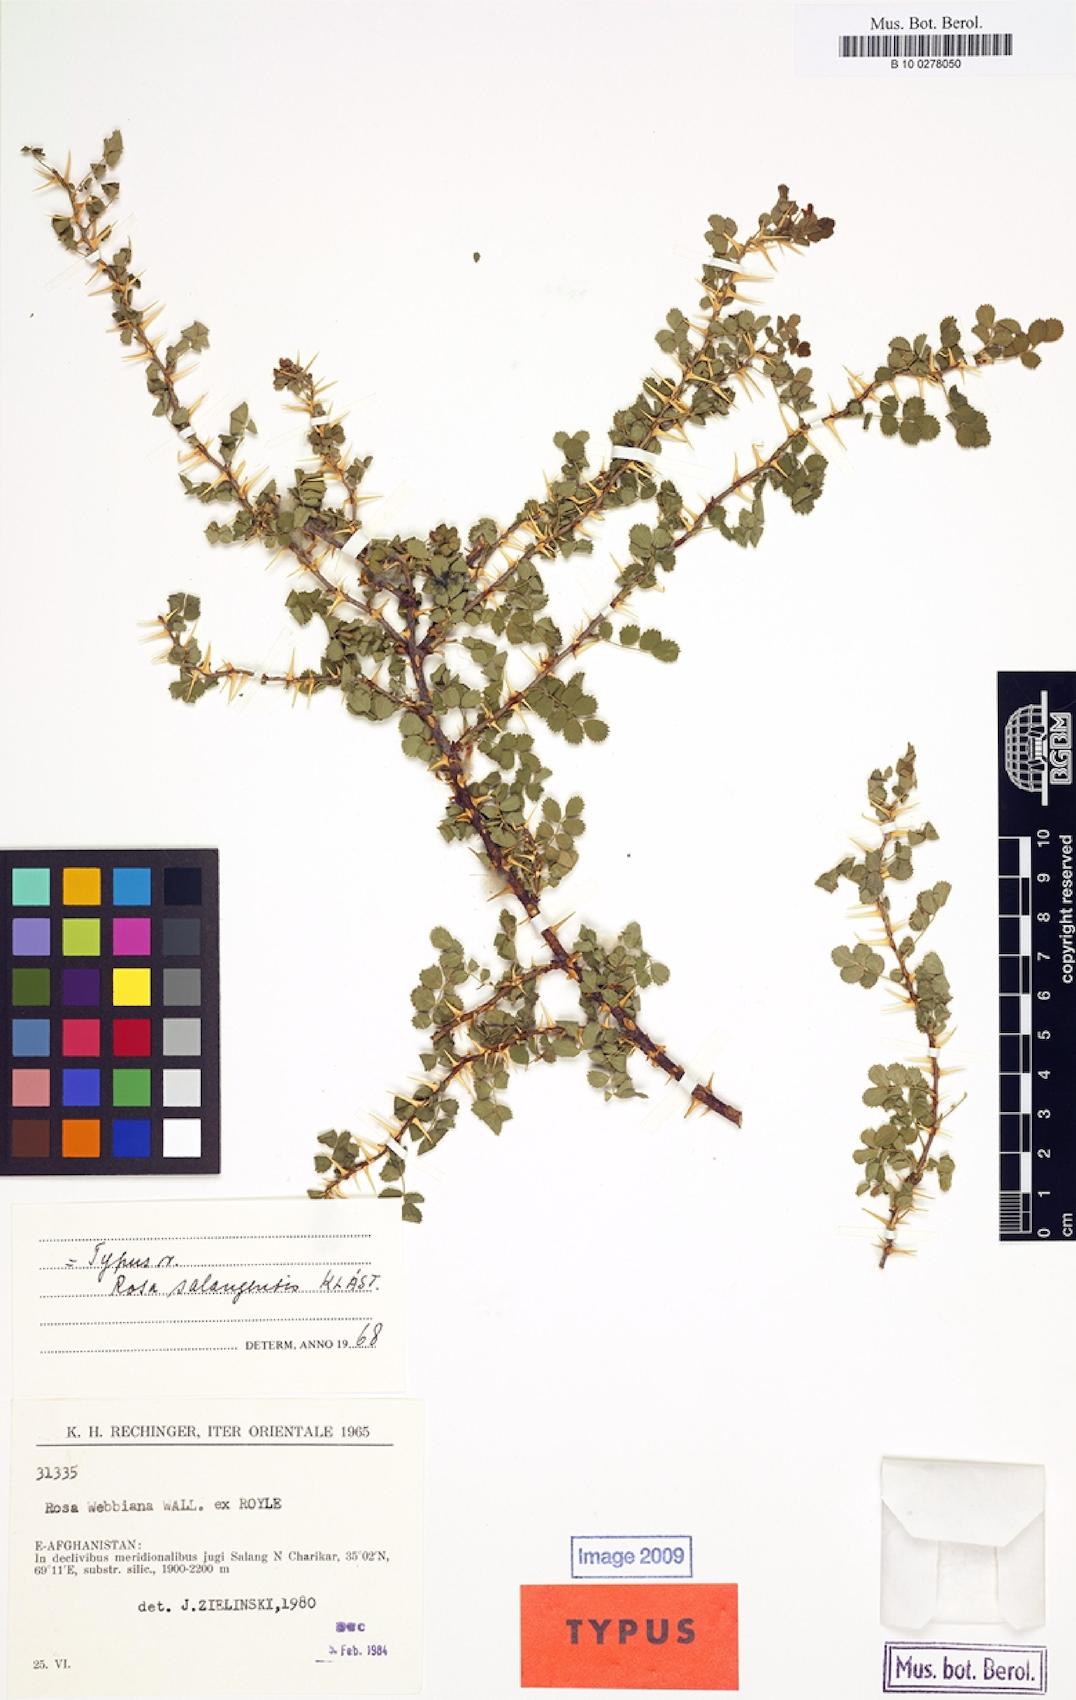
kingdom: Plantae
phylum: Tracheophyta
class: Magnoliopsida
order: Rosales
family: Rosaceae
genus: Rosa
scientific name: Rosa webbiana
